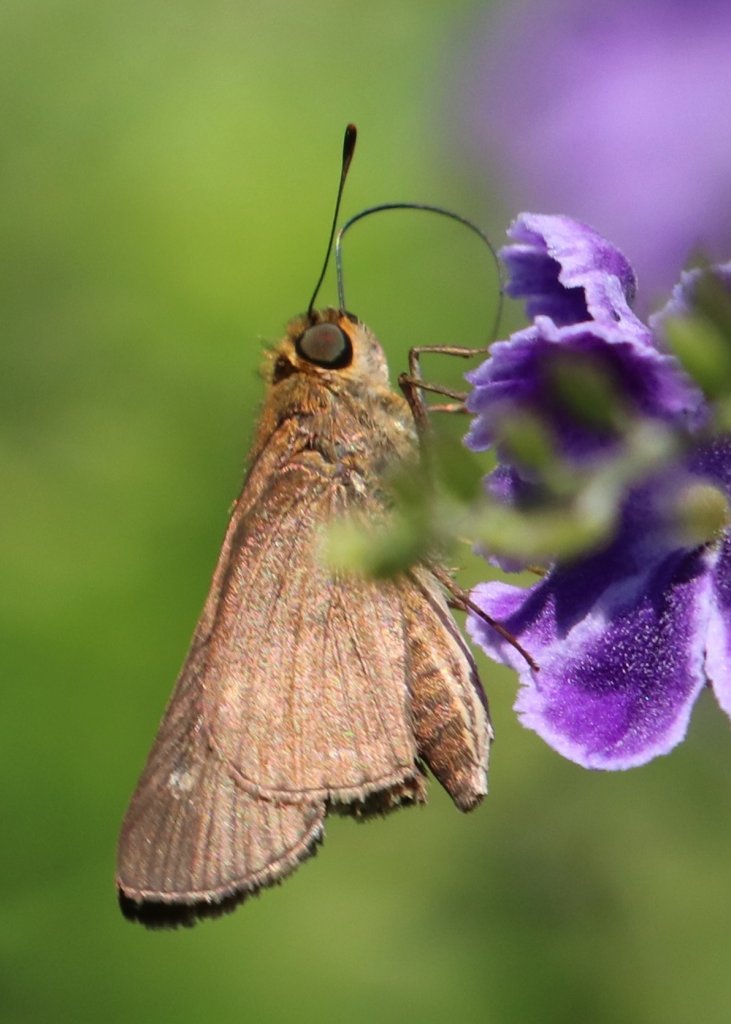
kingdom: Animalia
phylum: Arthropoda
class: Insecta
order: Lepidoptera
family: Hesperiidae
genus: Panoquina
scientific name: Panoquina ocola
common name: Ocola Skipper
